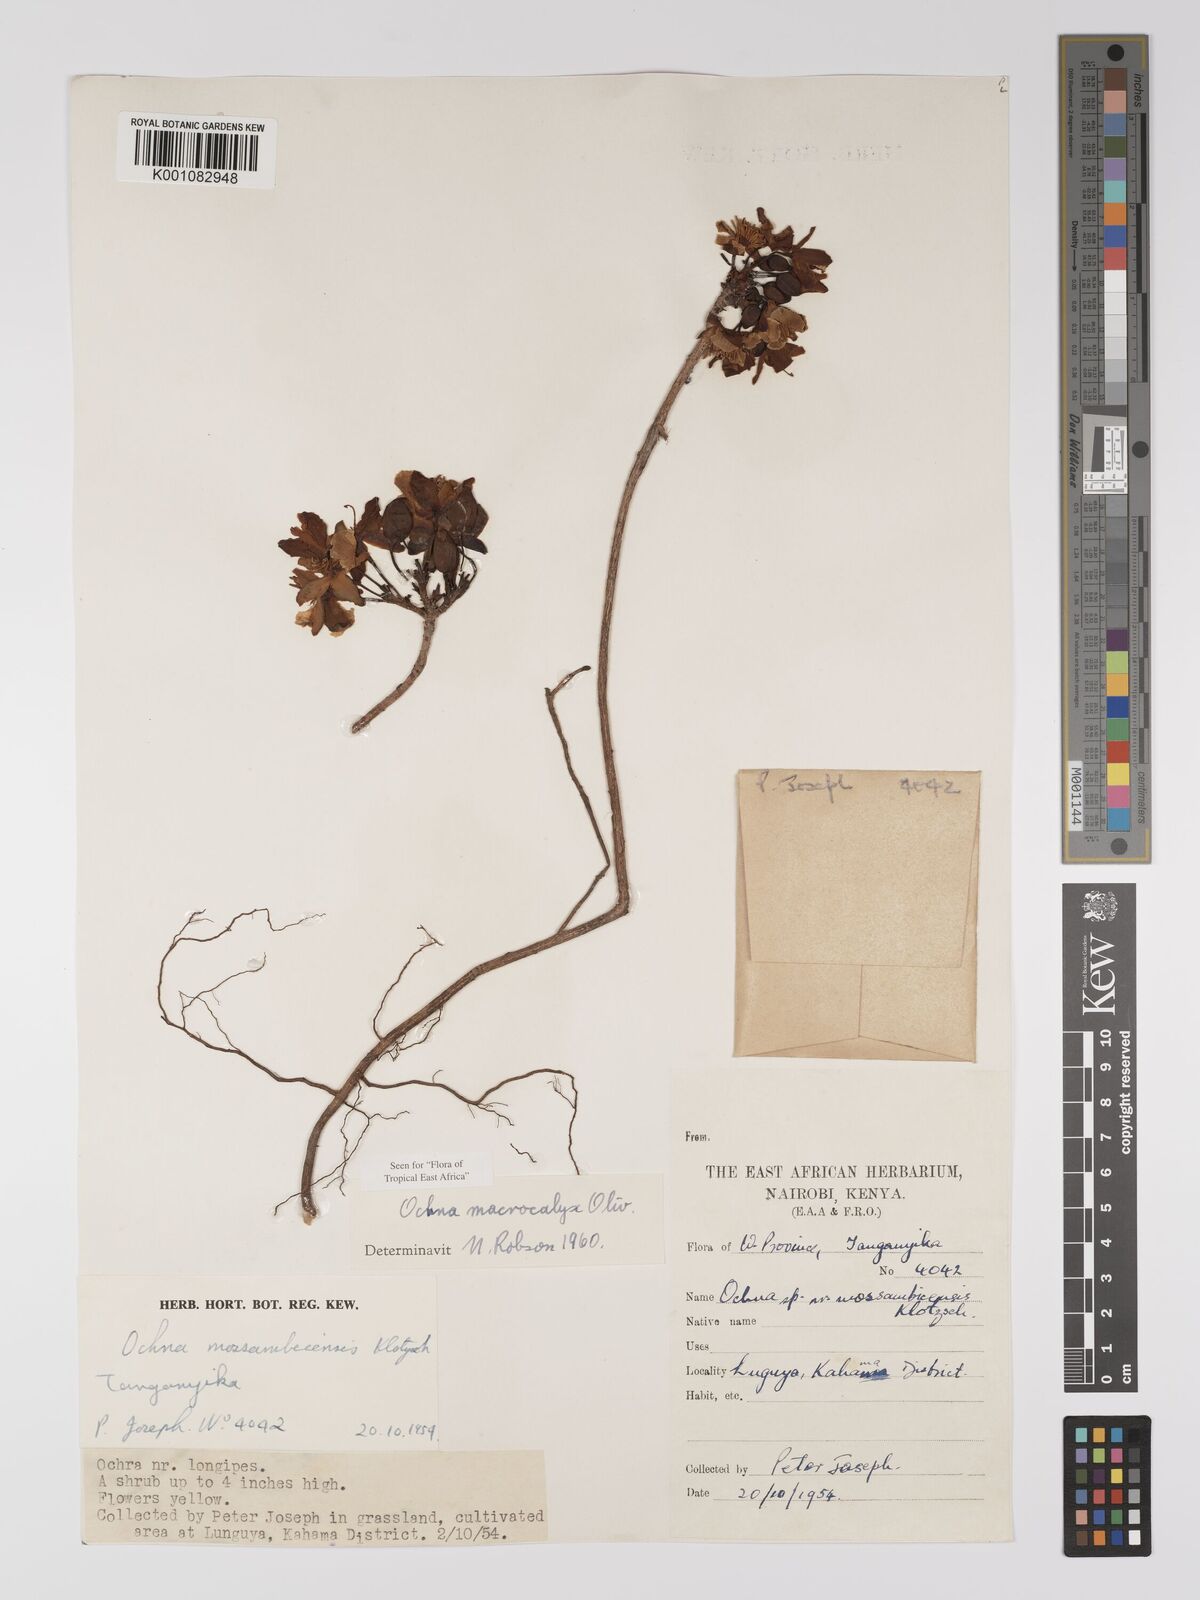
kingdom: Plantae
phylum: Tracheophyta
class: Magnoliopsida
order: Malpighiales
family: Ochnaceae
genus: Ochna
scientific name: Ochna macrocalyx
